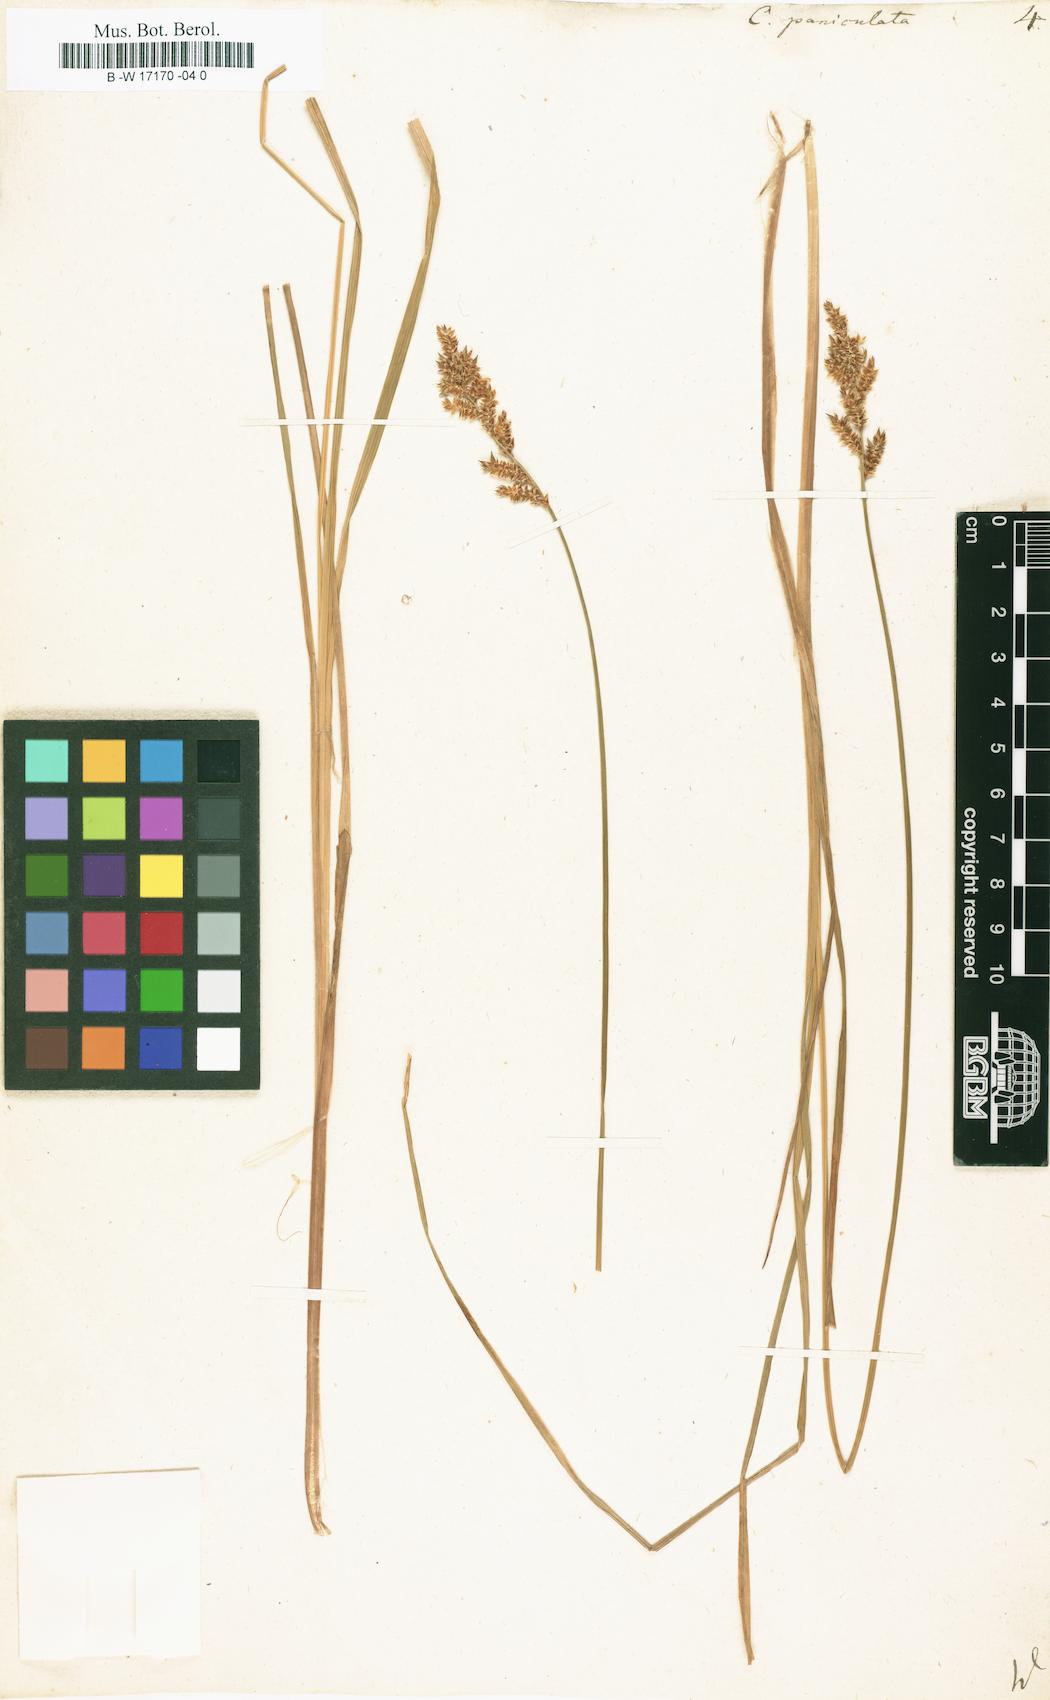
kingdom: Plantae
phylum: Tracheophyta
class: Liliopsida
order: Poales
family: Cyperaceae
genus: Carex
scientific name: Carex paniculata
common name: Greater tussock-sedge
